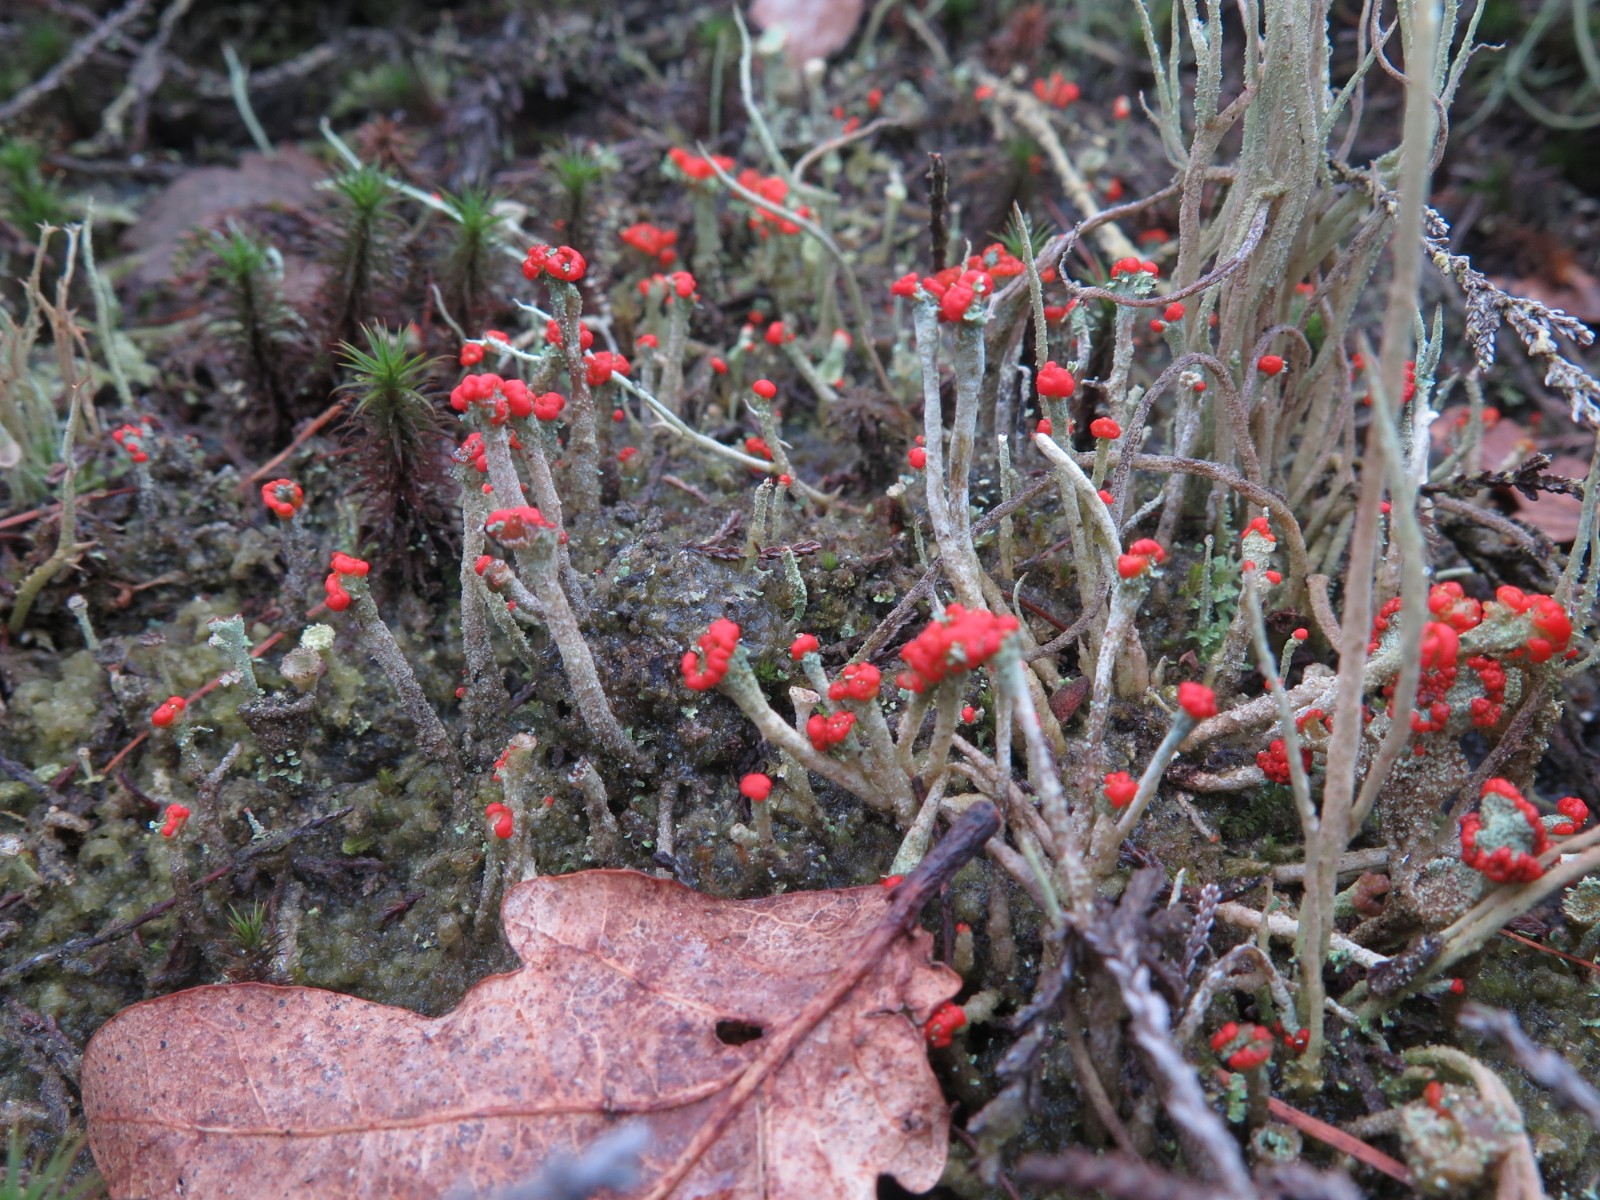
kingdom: Fungi
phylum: Ascomycota
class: Lecanoromycetes
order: Lecanorales
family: Cladoniaceae
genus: Cladonia
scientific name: Cladonia floerkeana
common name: lakrød bægerlav
